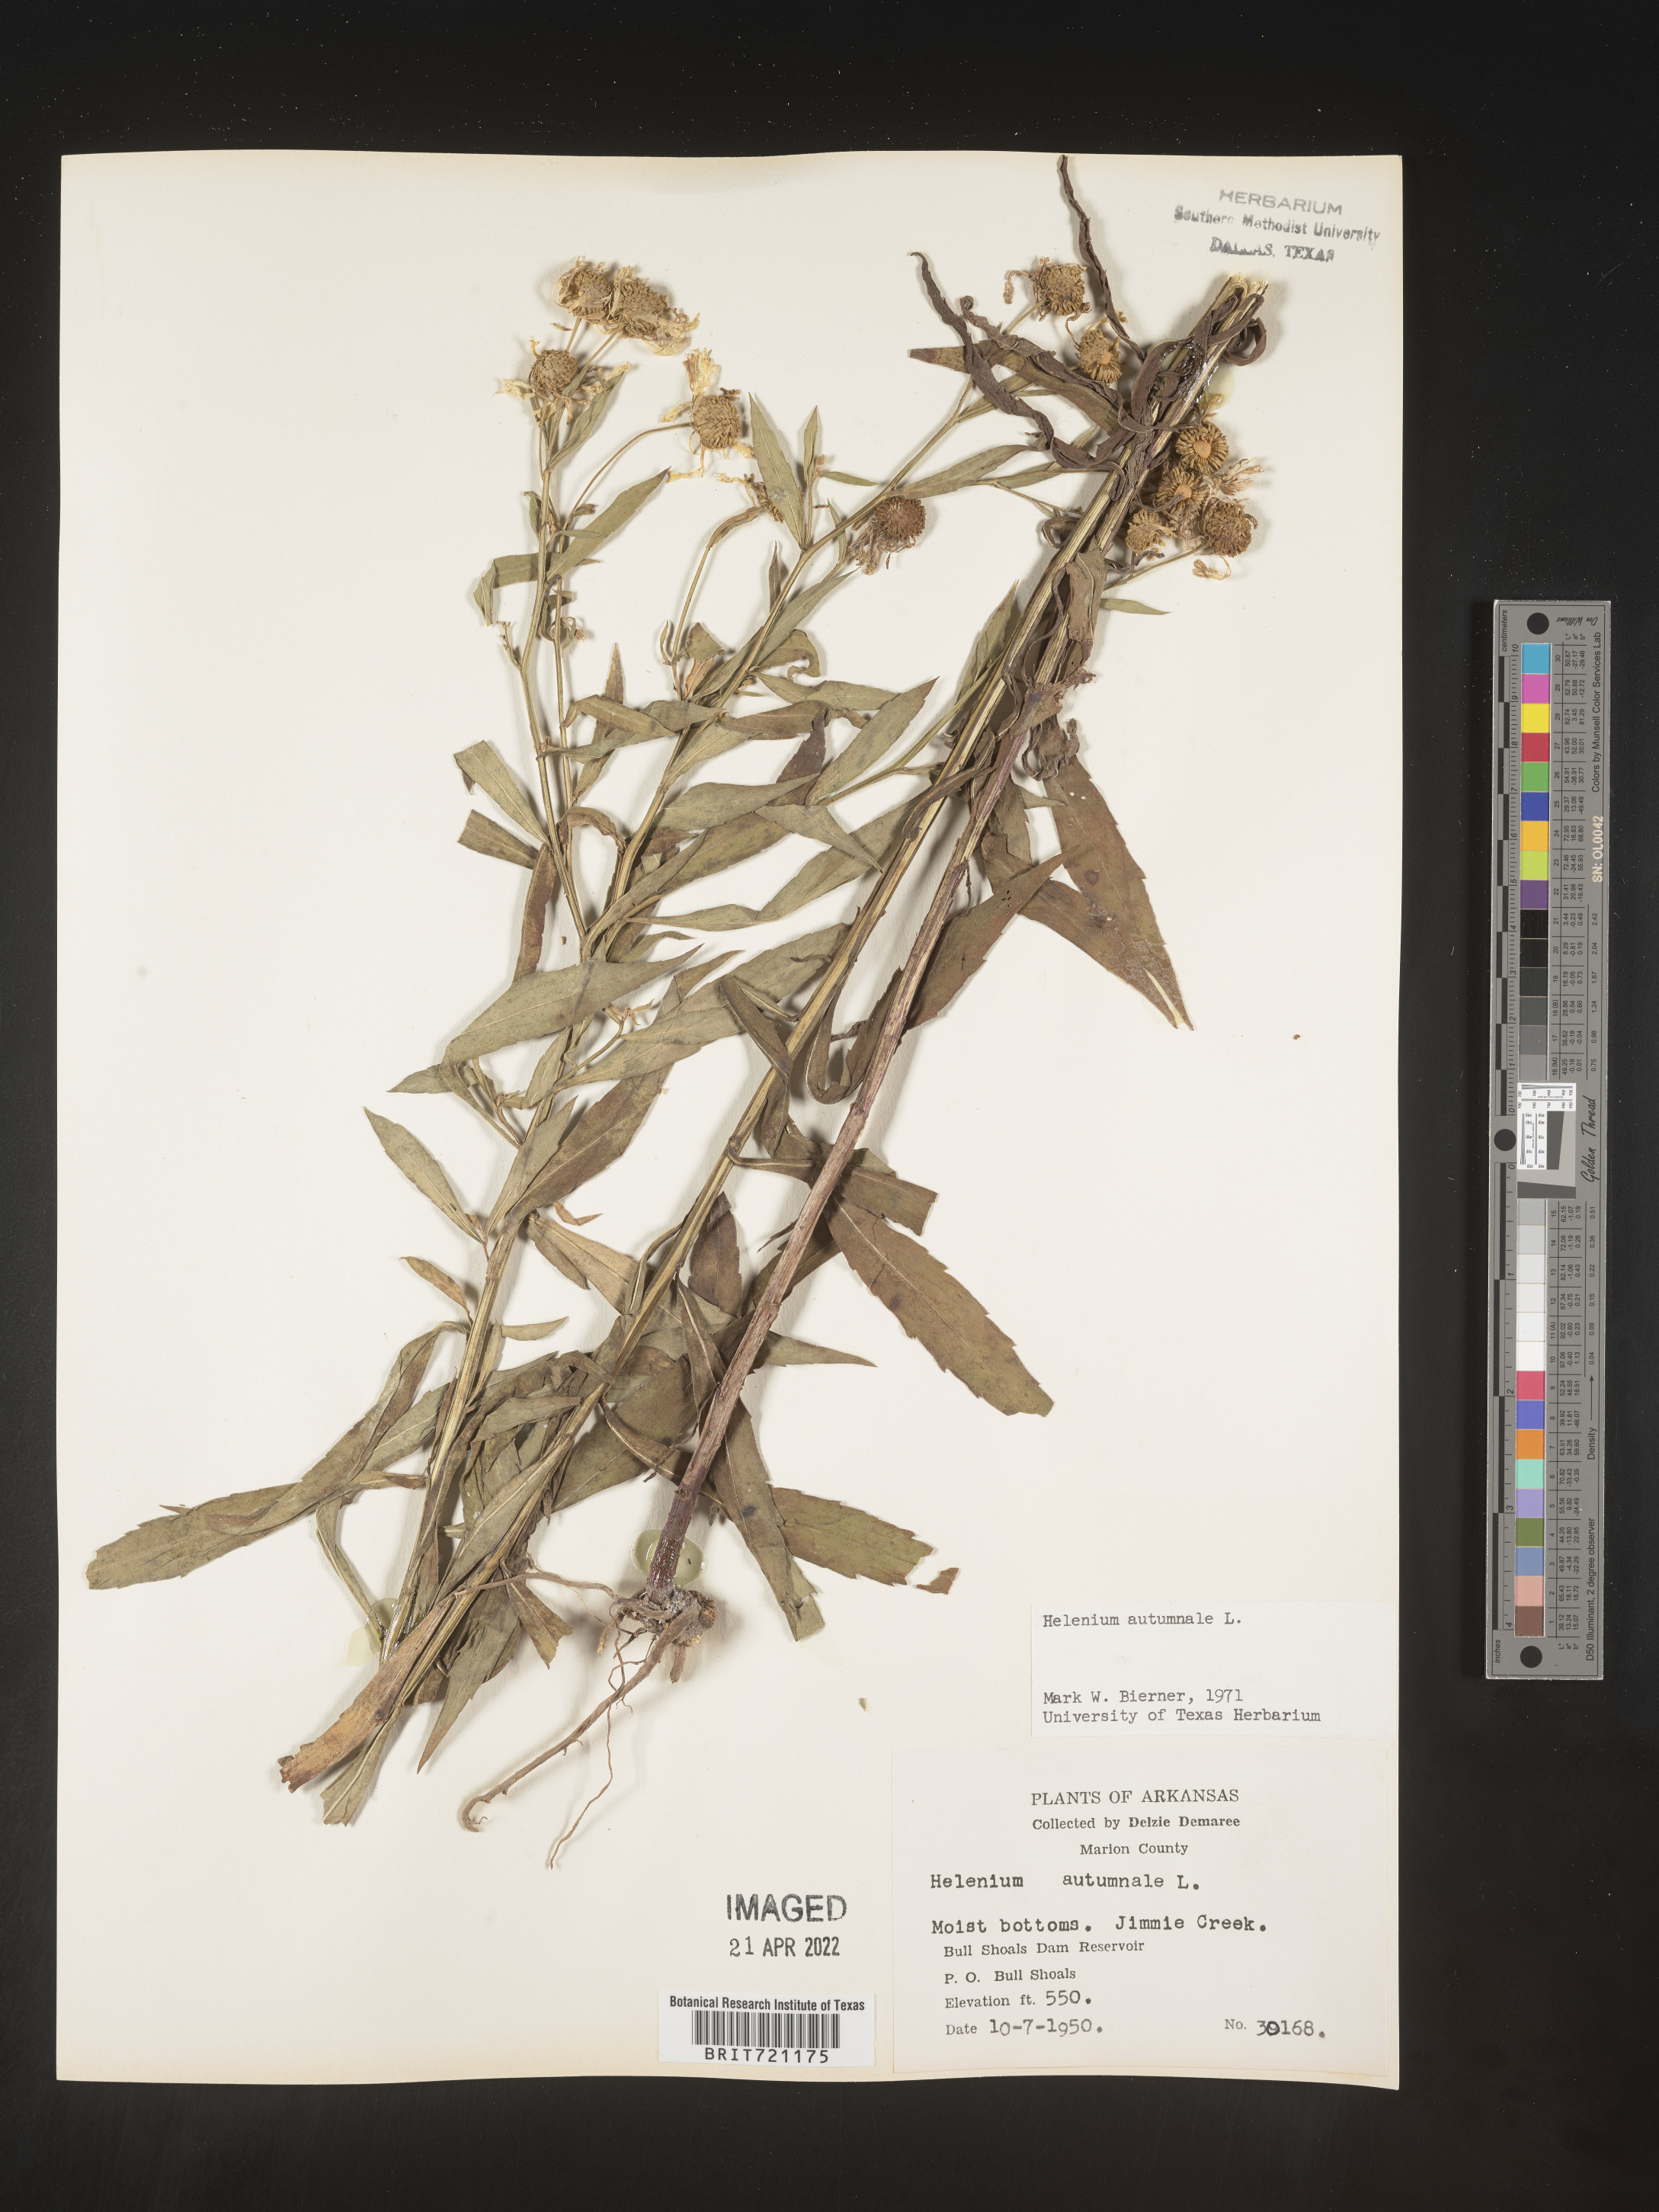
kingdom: Plantae
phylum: Tracheophyta
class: Magnoliopsida
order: Asterales
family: Asteraceae
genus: Helenium
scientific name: Helenium autumnale
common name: Sneezeweed
